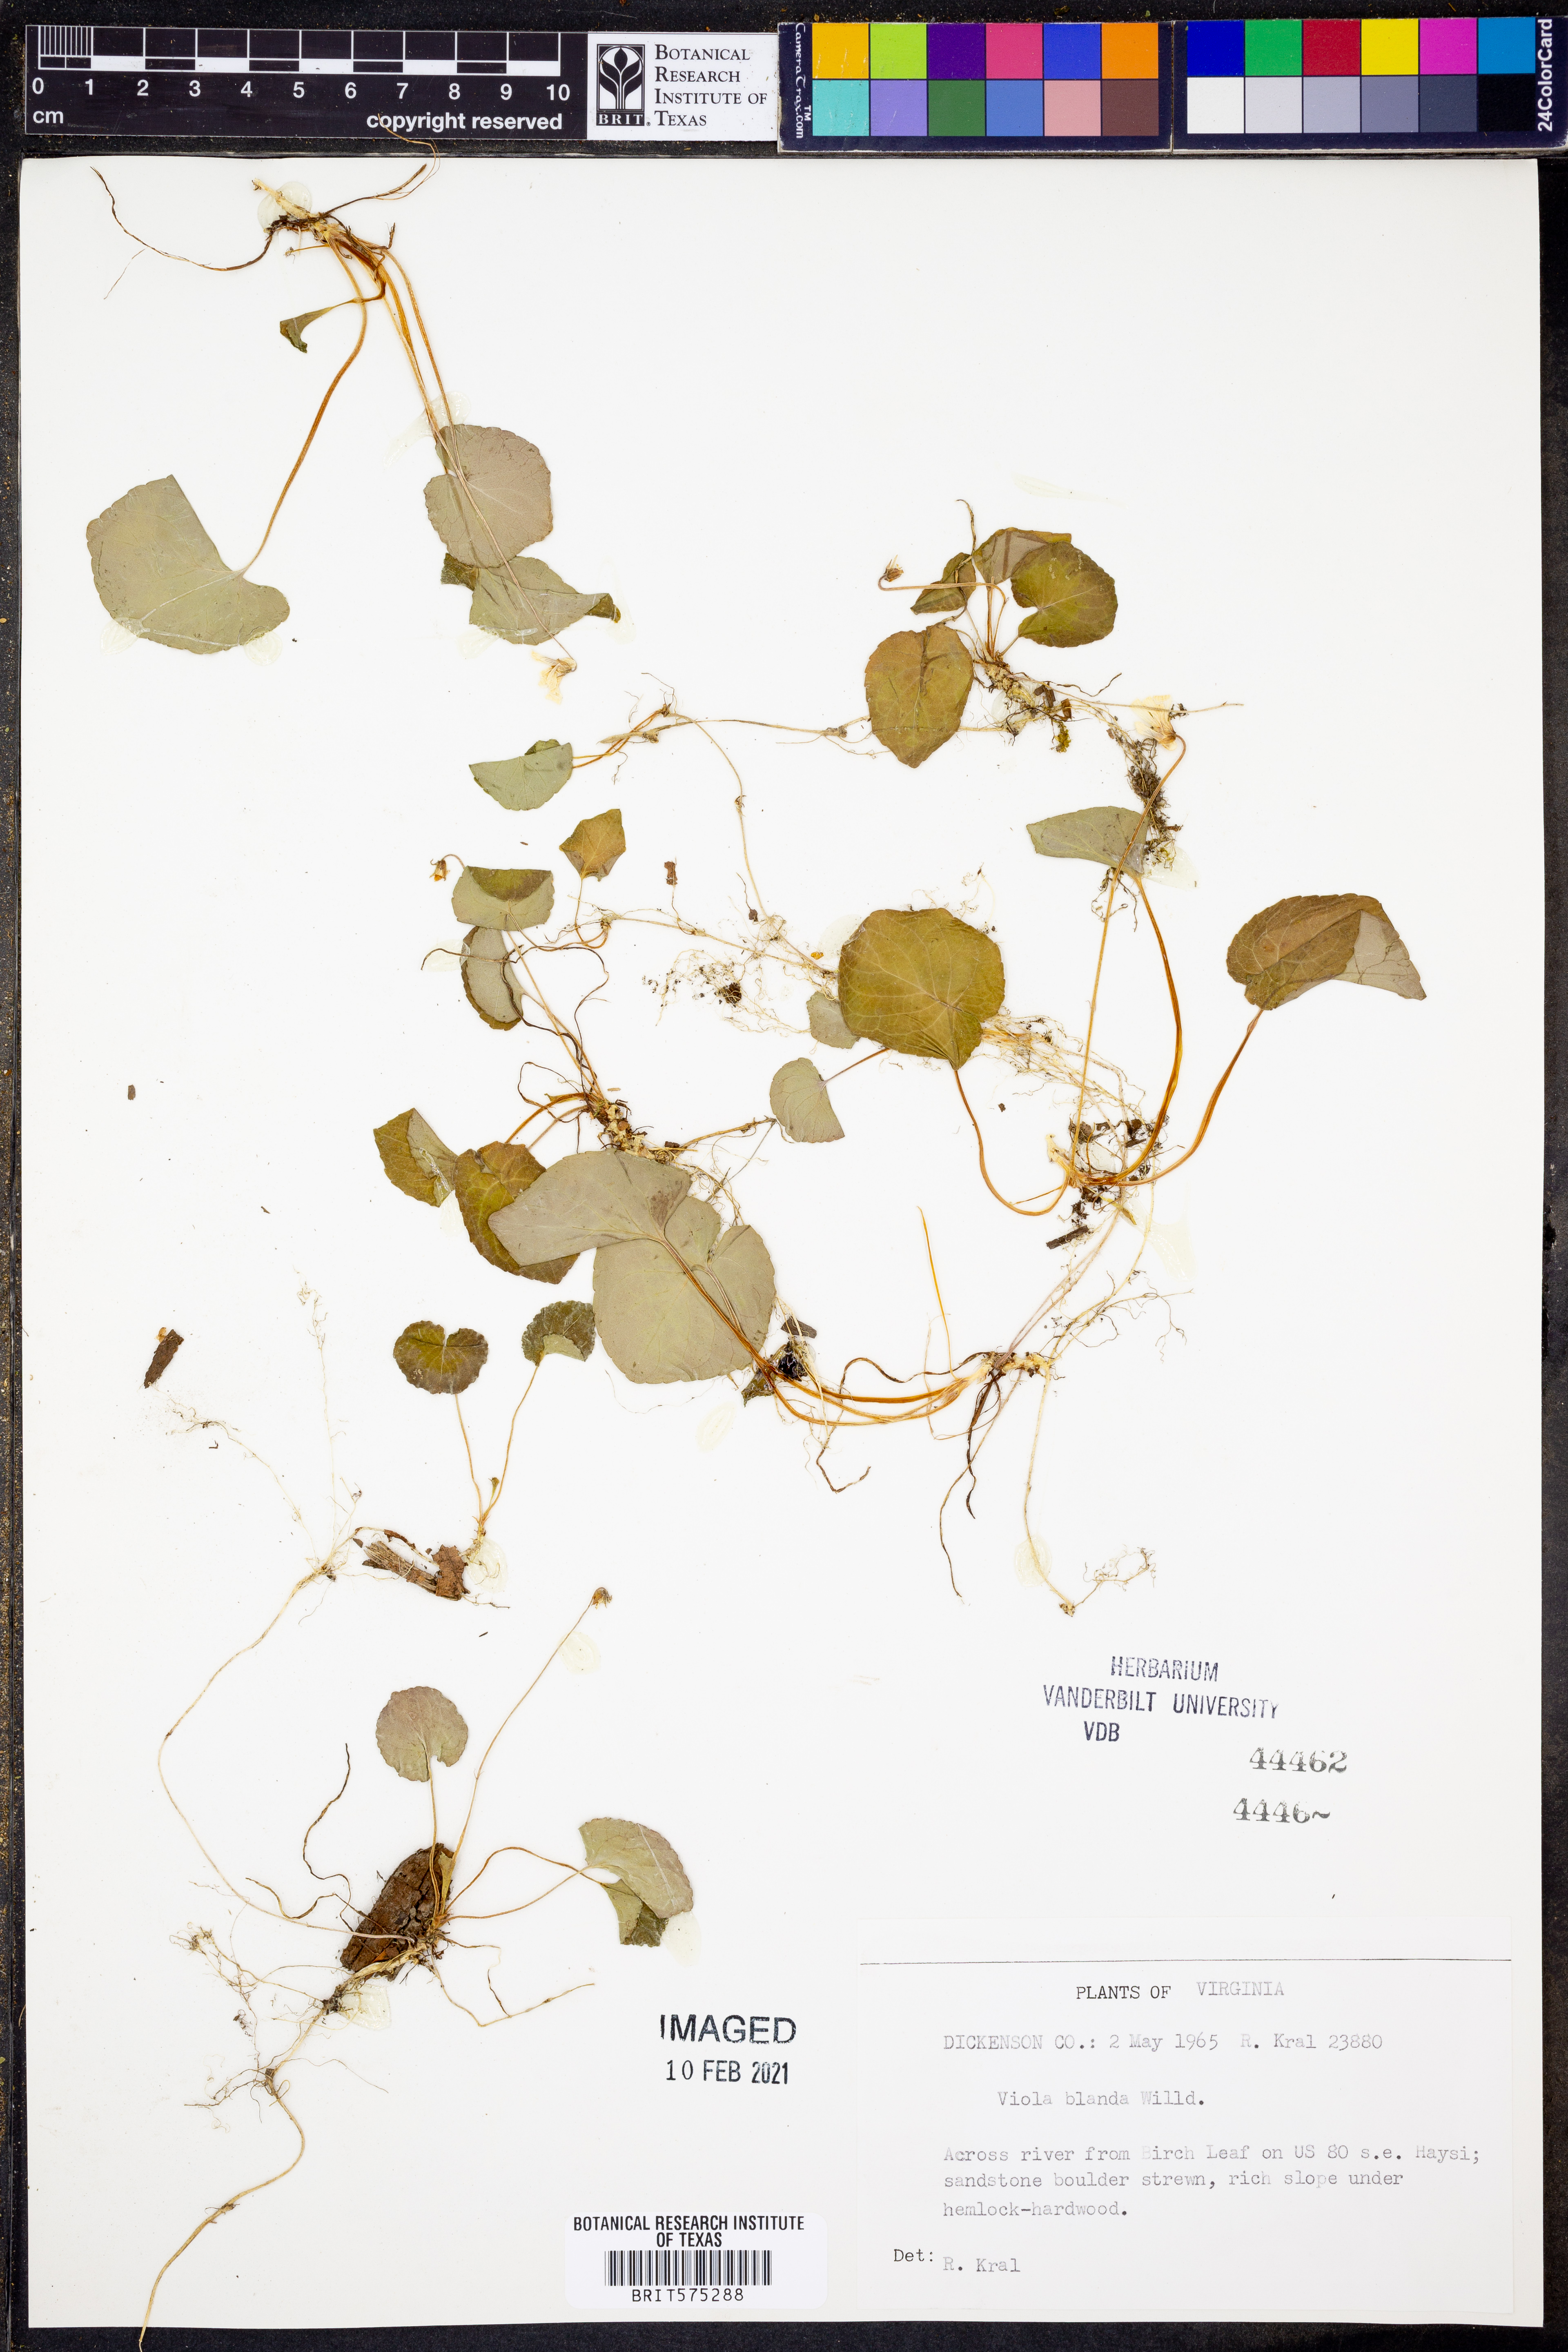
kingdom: Plantae
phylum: Tracheophyta
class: Magnoliopsida
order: Malpighiales
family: Violaceae
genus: Viola
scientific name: Viola blanda
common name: Sweet white violet
